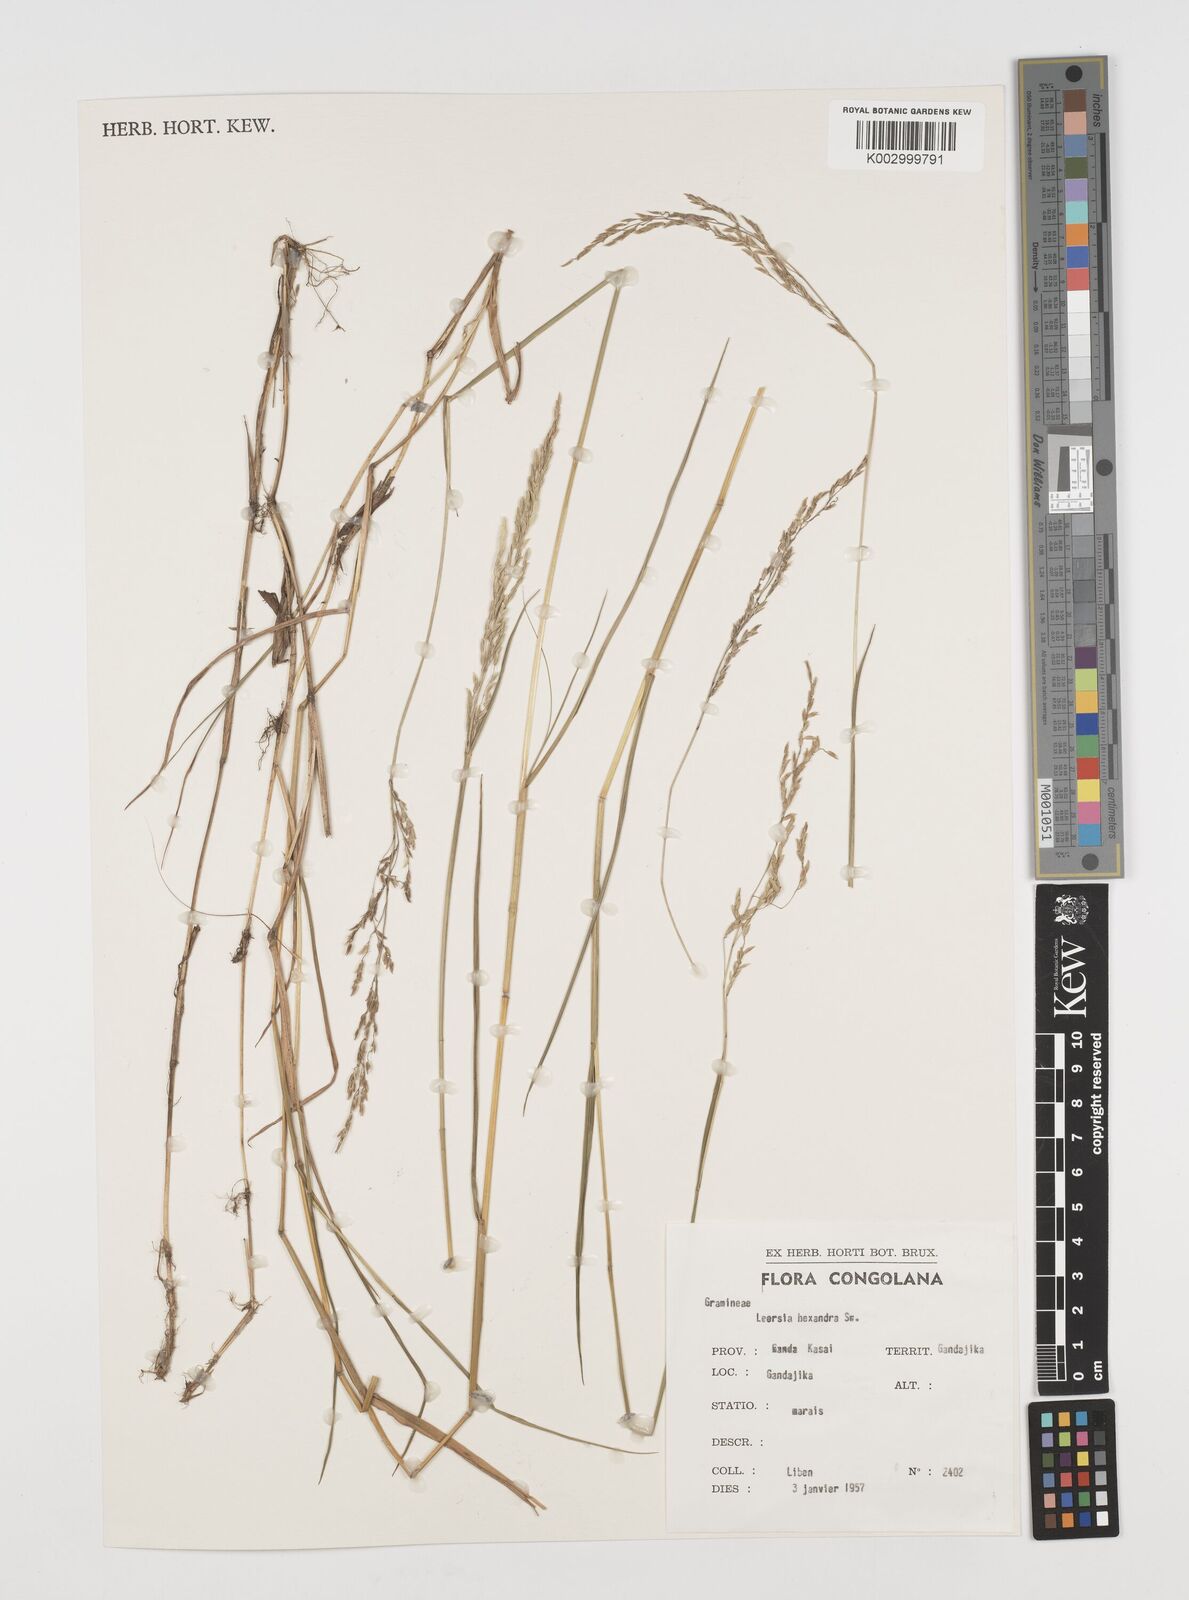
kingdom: Plantae
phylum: Tracheophyta
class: Liliopsida
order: Poales
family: Poaceae
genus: Leersia
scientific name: Leersia hexandra
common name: Southern cut grass
